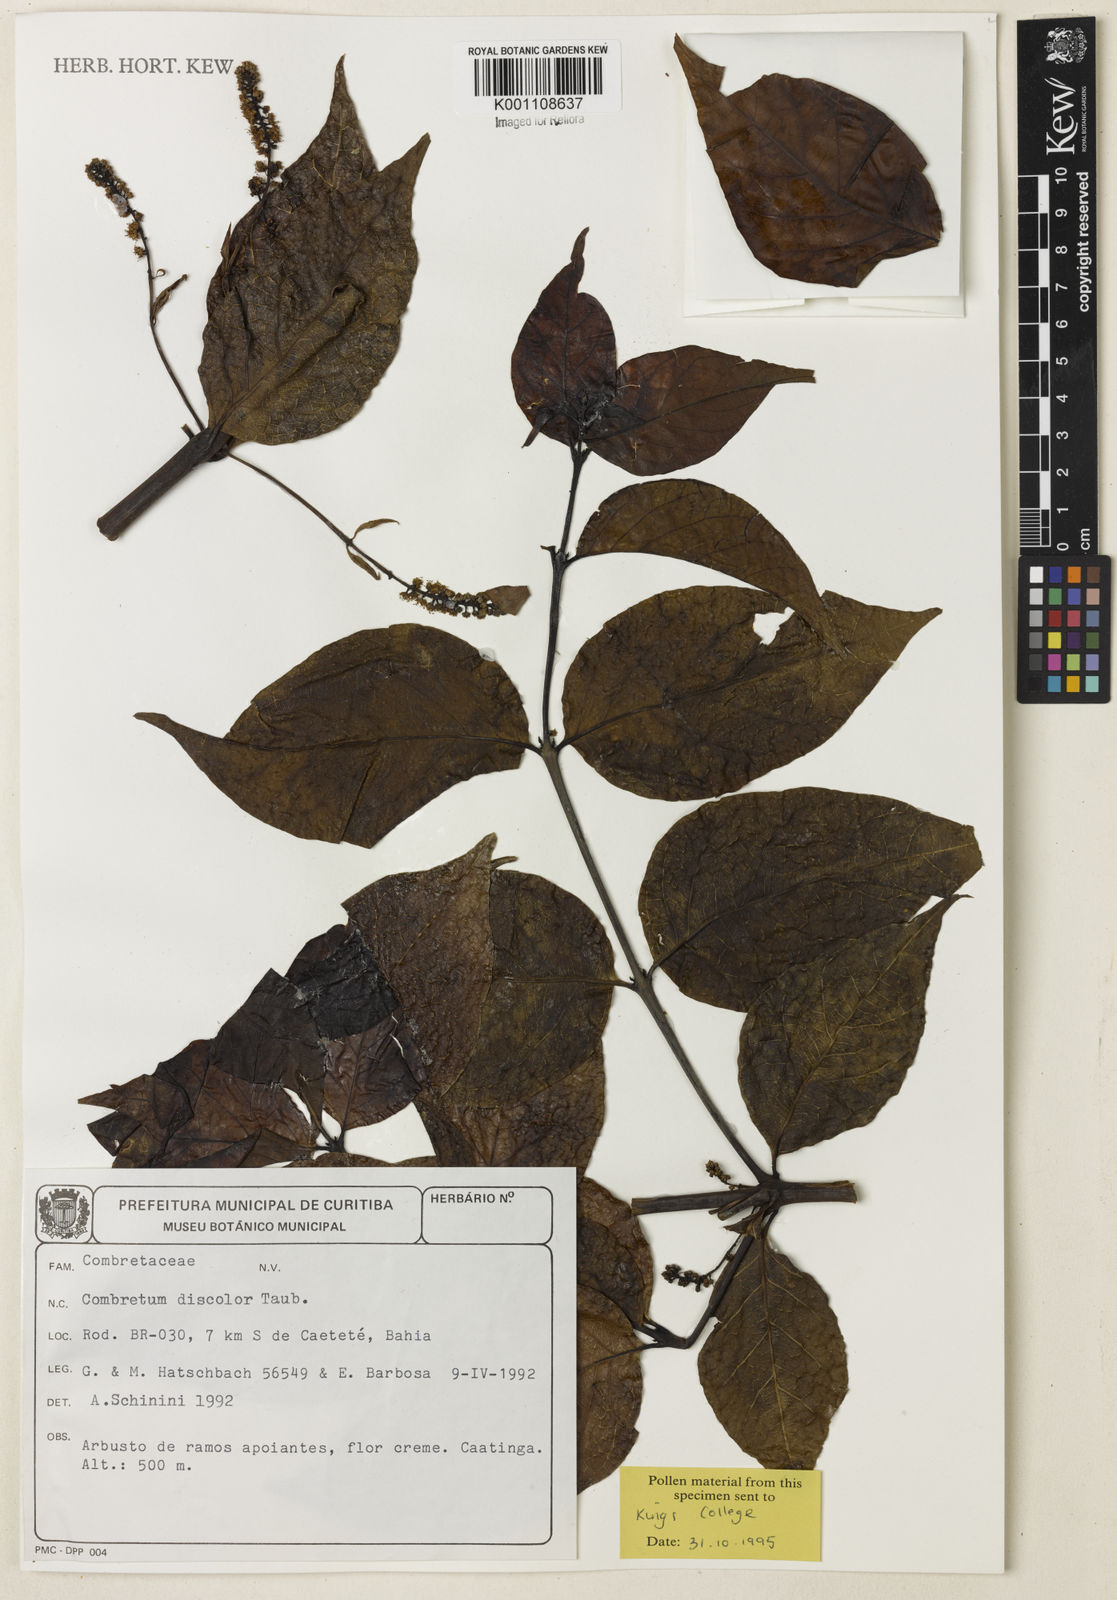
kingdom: Plantae
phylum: Tracheophyta
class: Magnoliopsida
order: Myrtales
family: Combretaceae
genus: Combretum
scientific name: Combretum discolor
